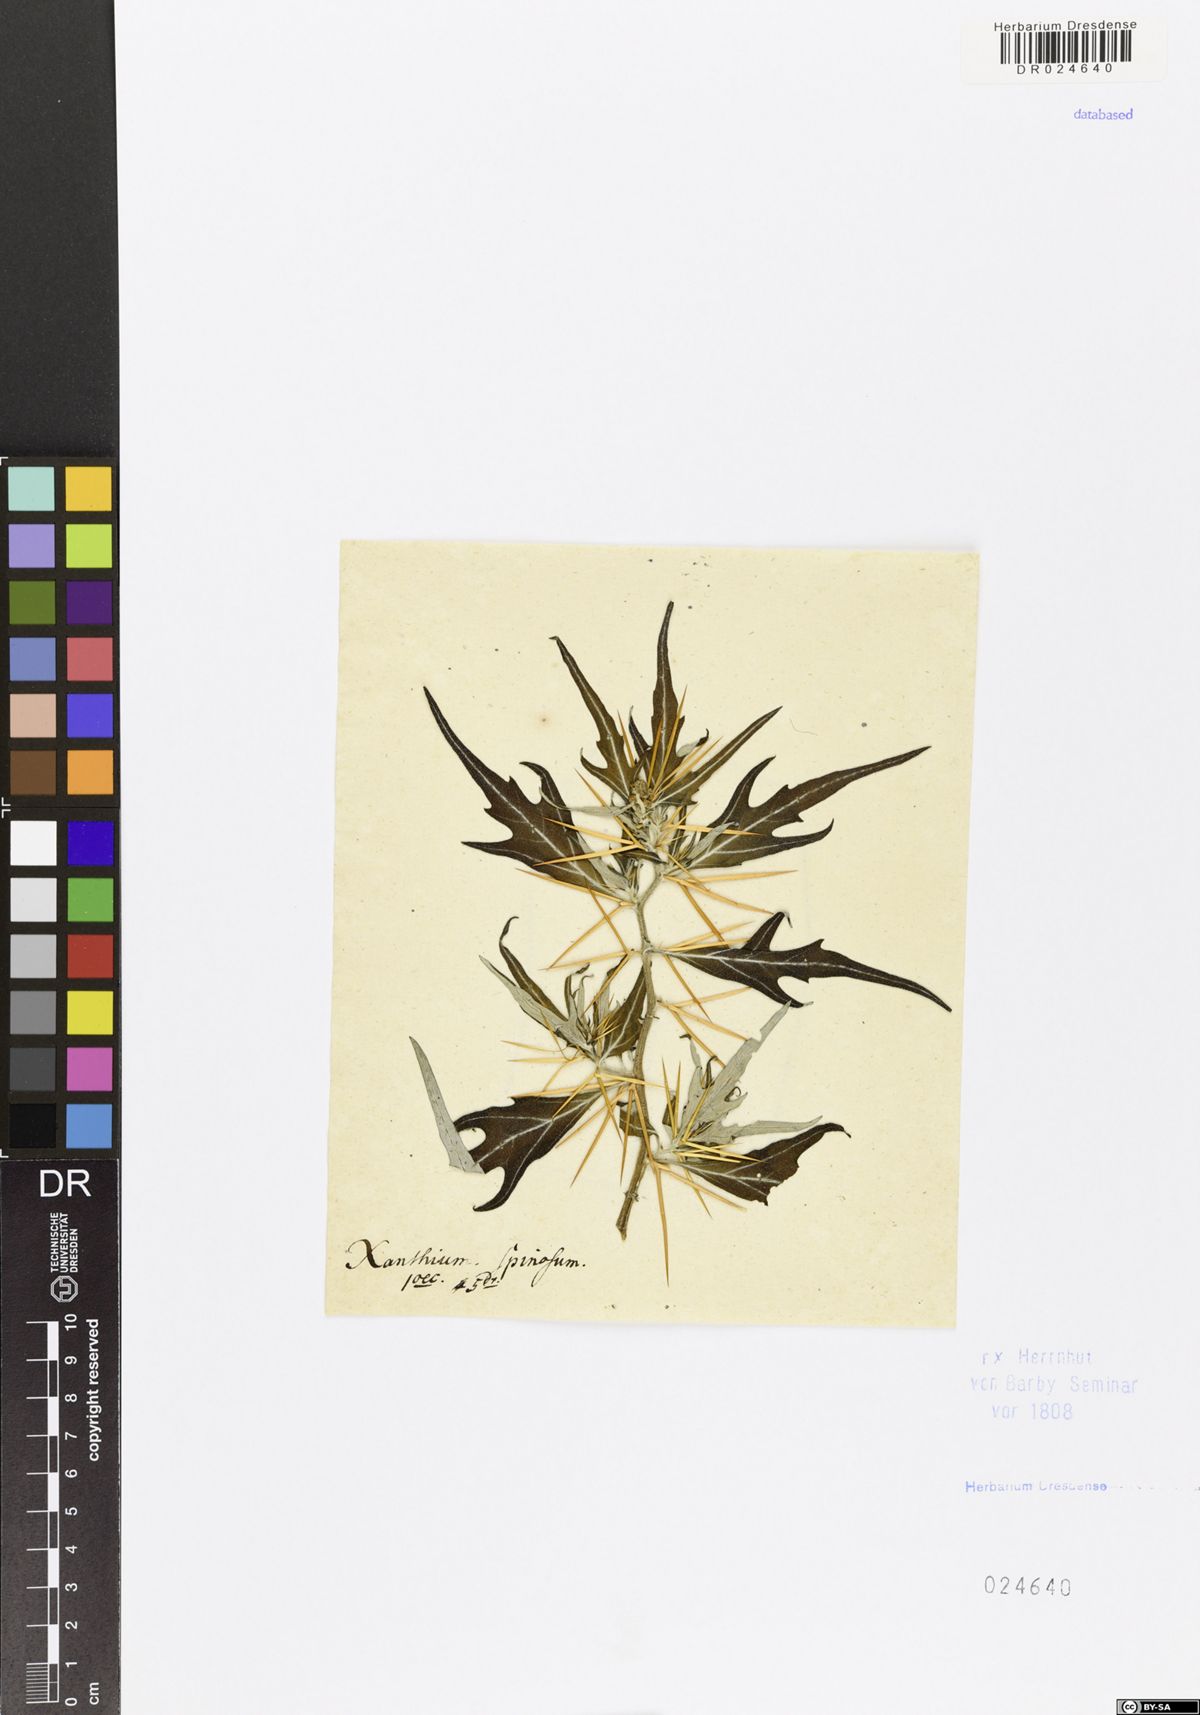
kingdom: Plantae
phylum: Tracheophyta
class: Magnoliopsida
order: Asterales
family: Asteraceae
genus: Xanthium
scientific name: Xanthium spinosum
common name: Spiny cocklebur
